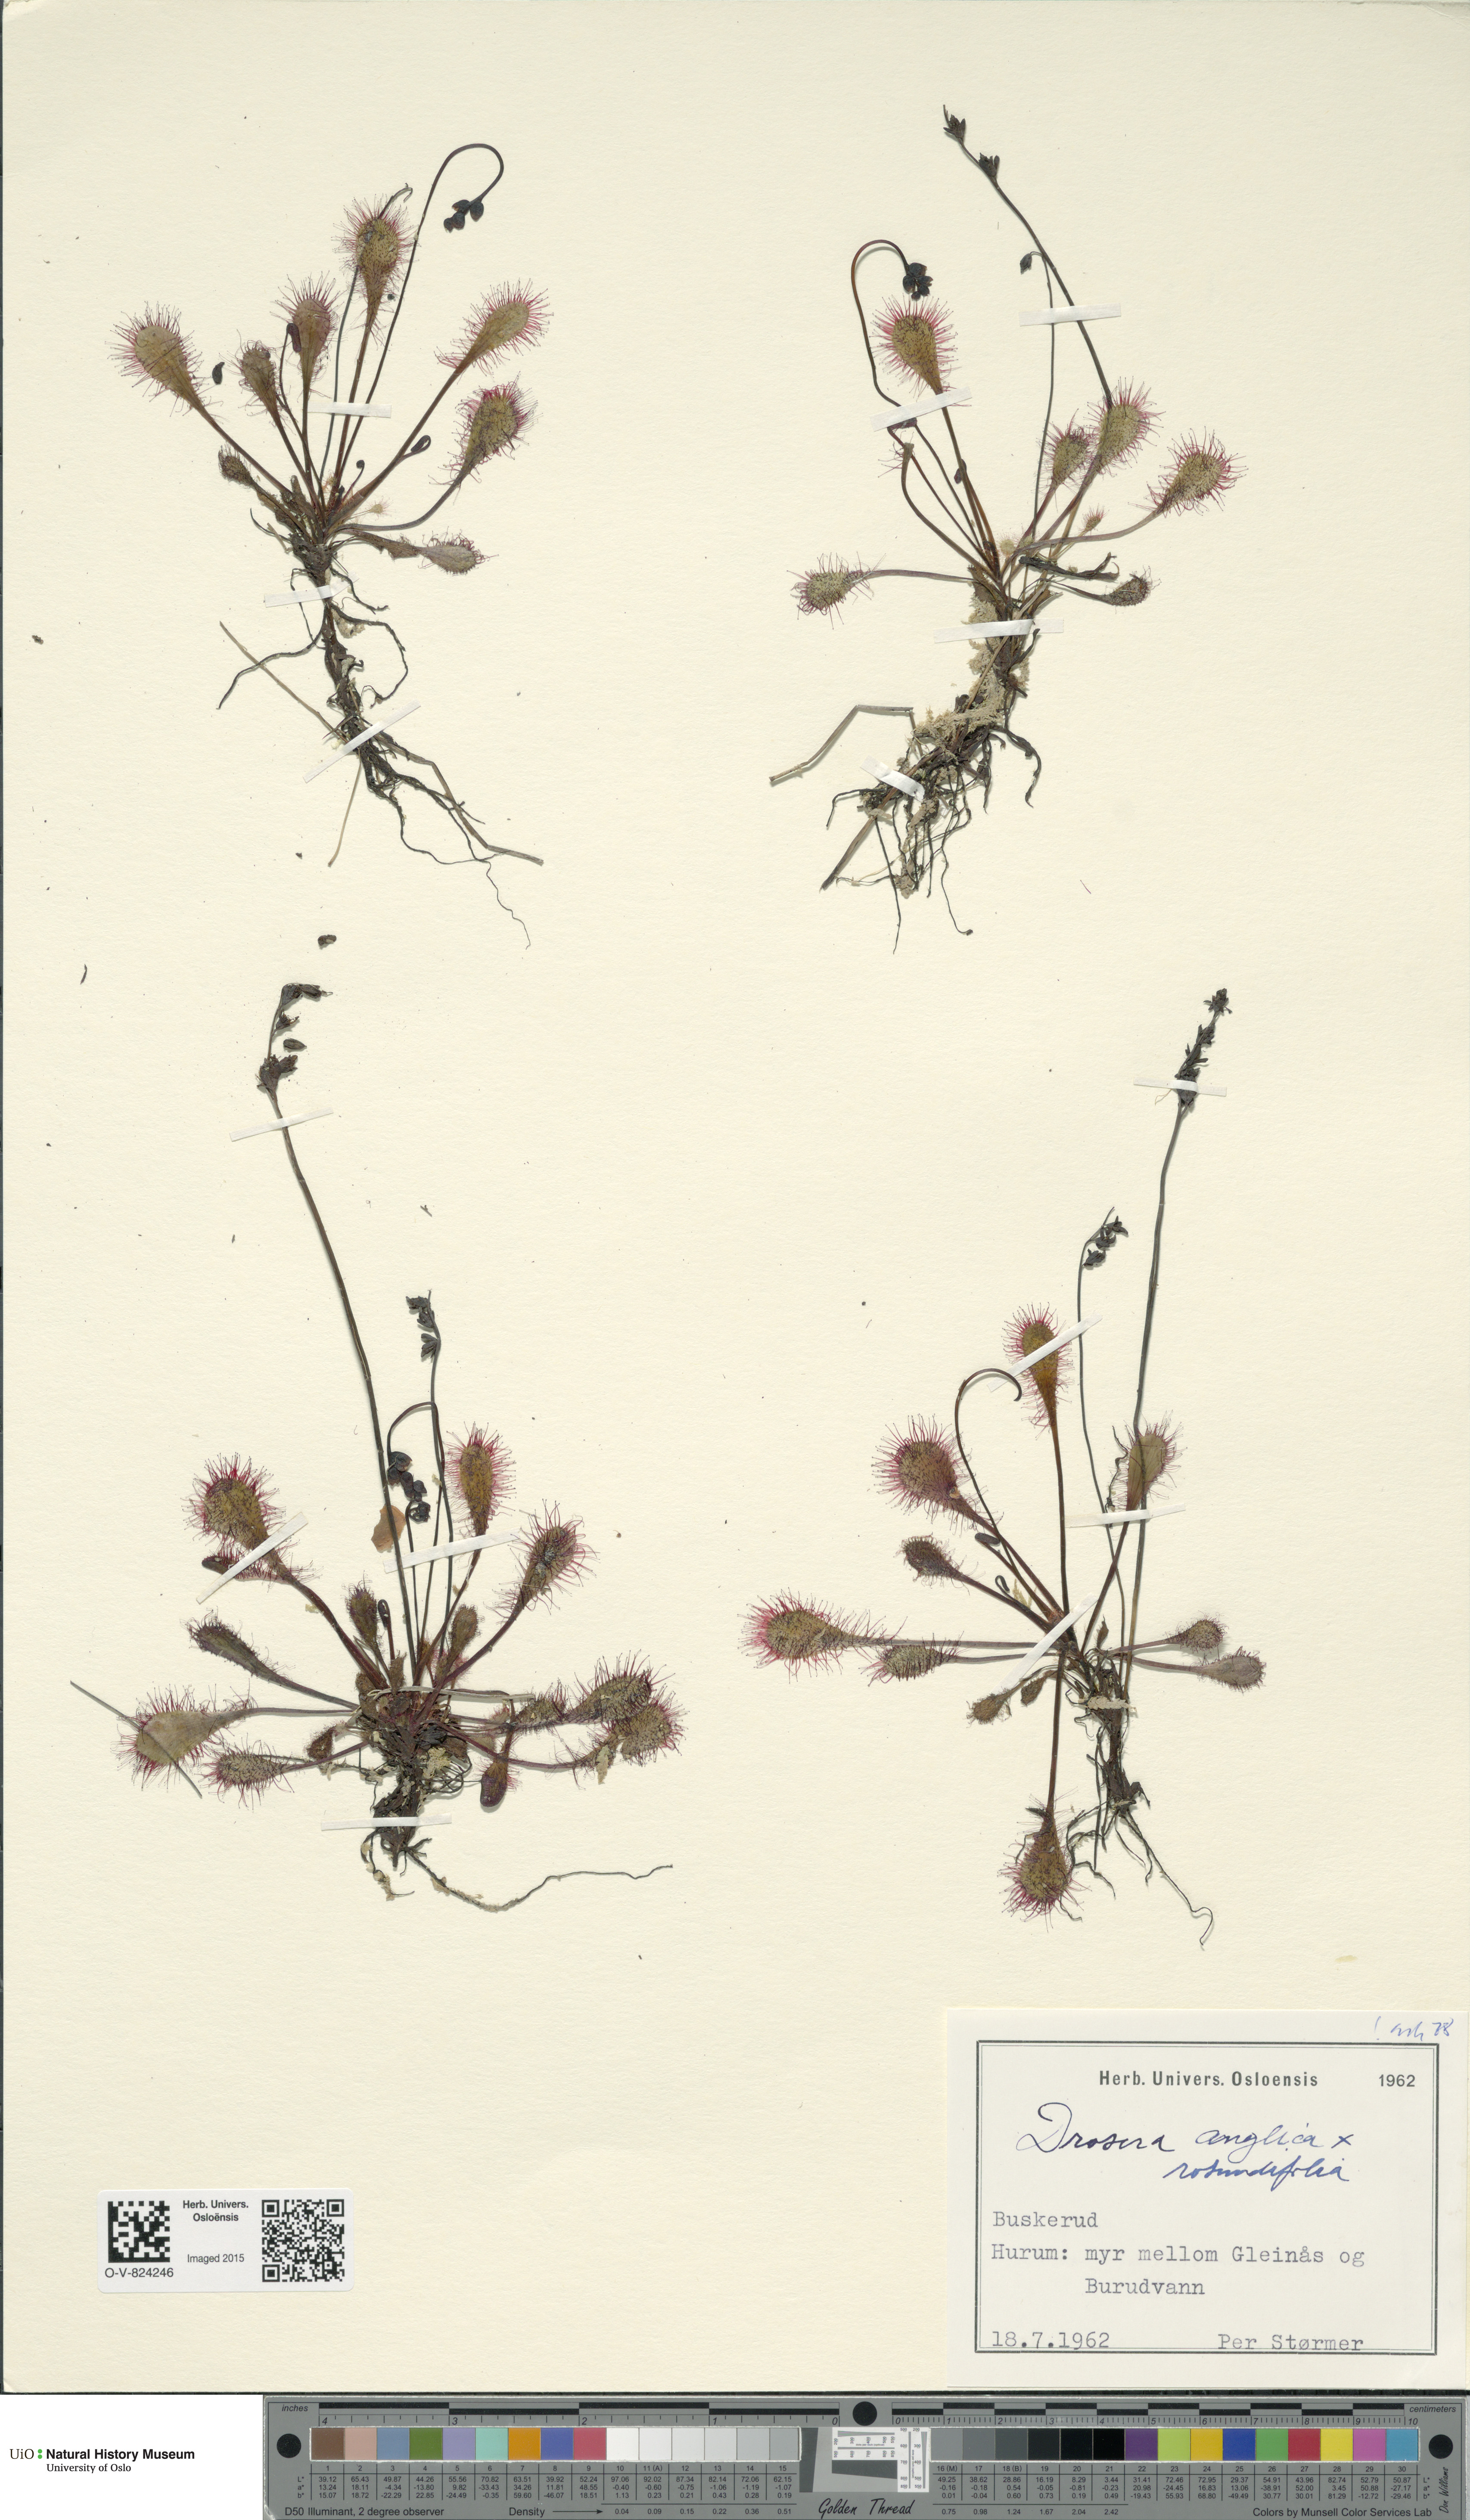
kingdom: Plantae
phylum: Tracheophyta
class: Magnoliopsida
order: Caryophyllales
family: Droseraceae
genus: Drosera
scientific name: Drosera
